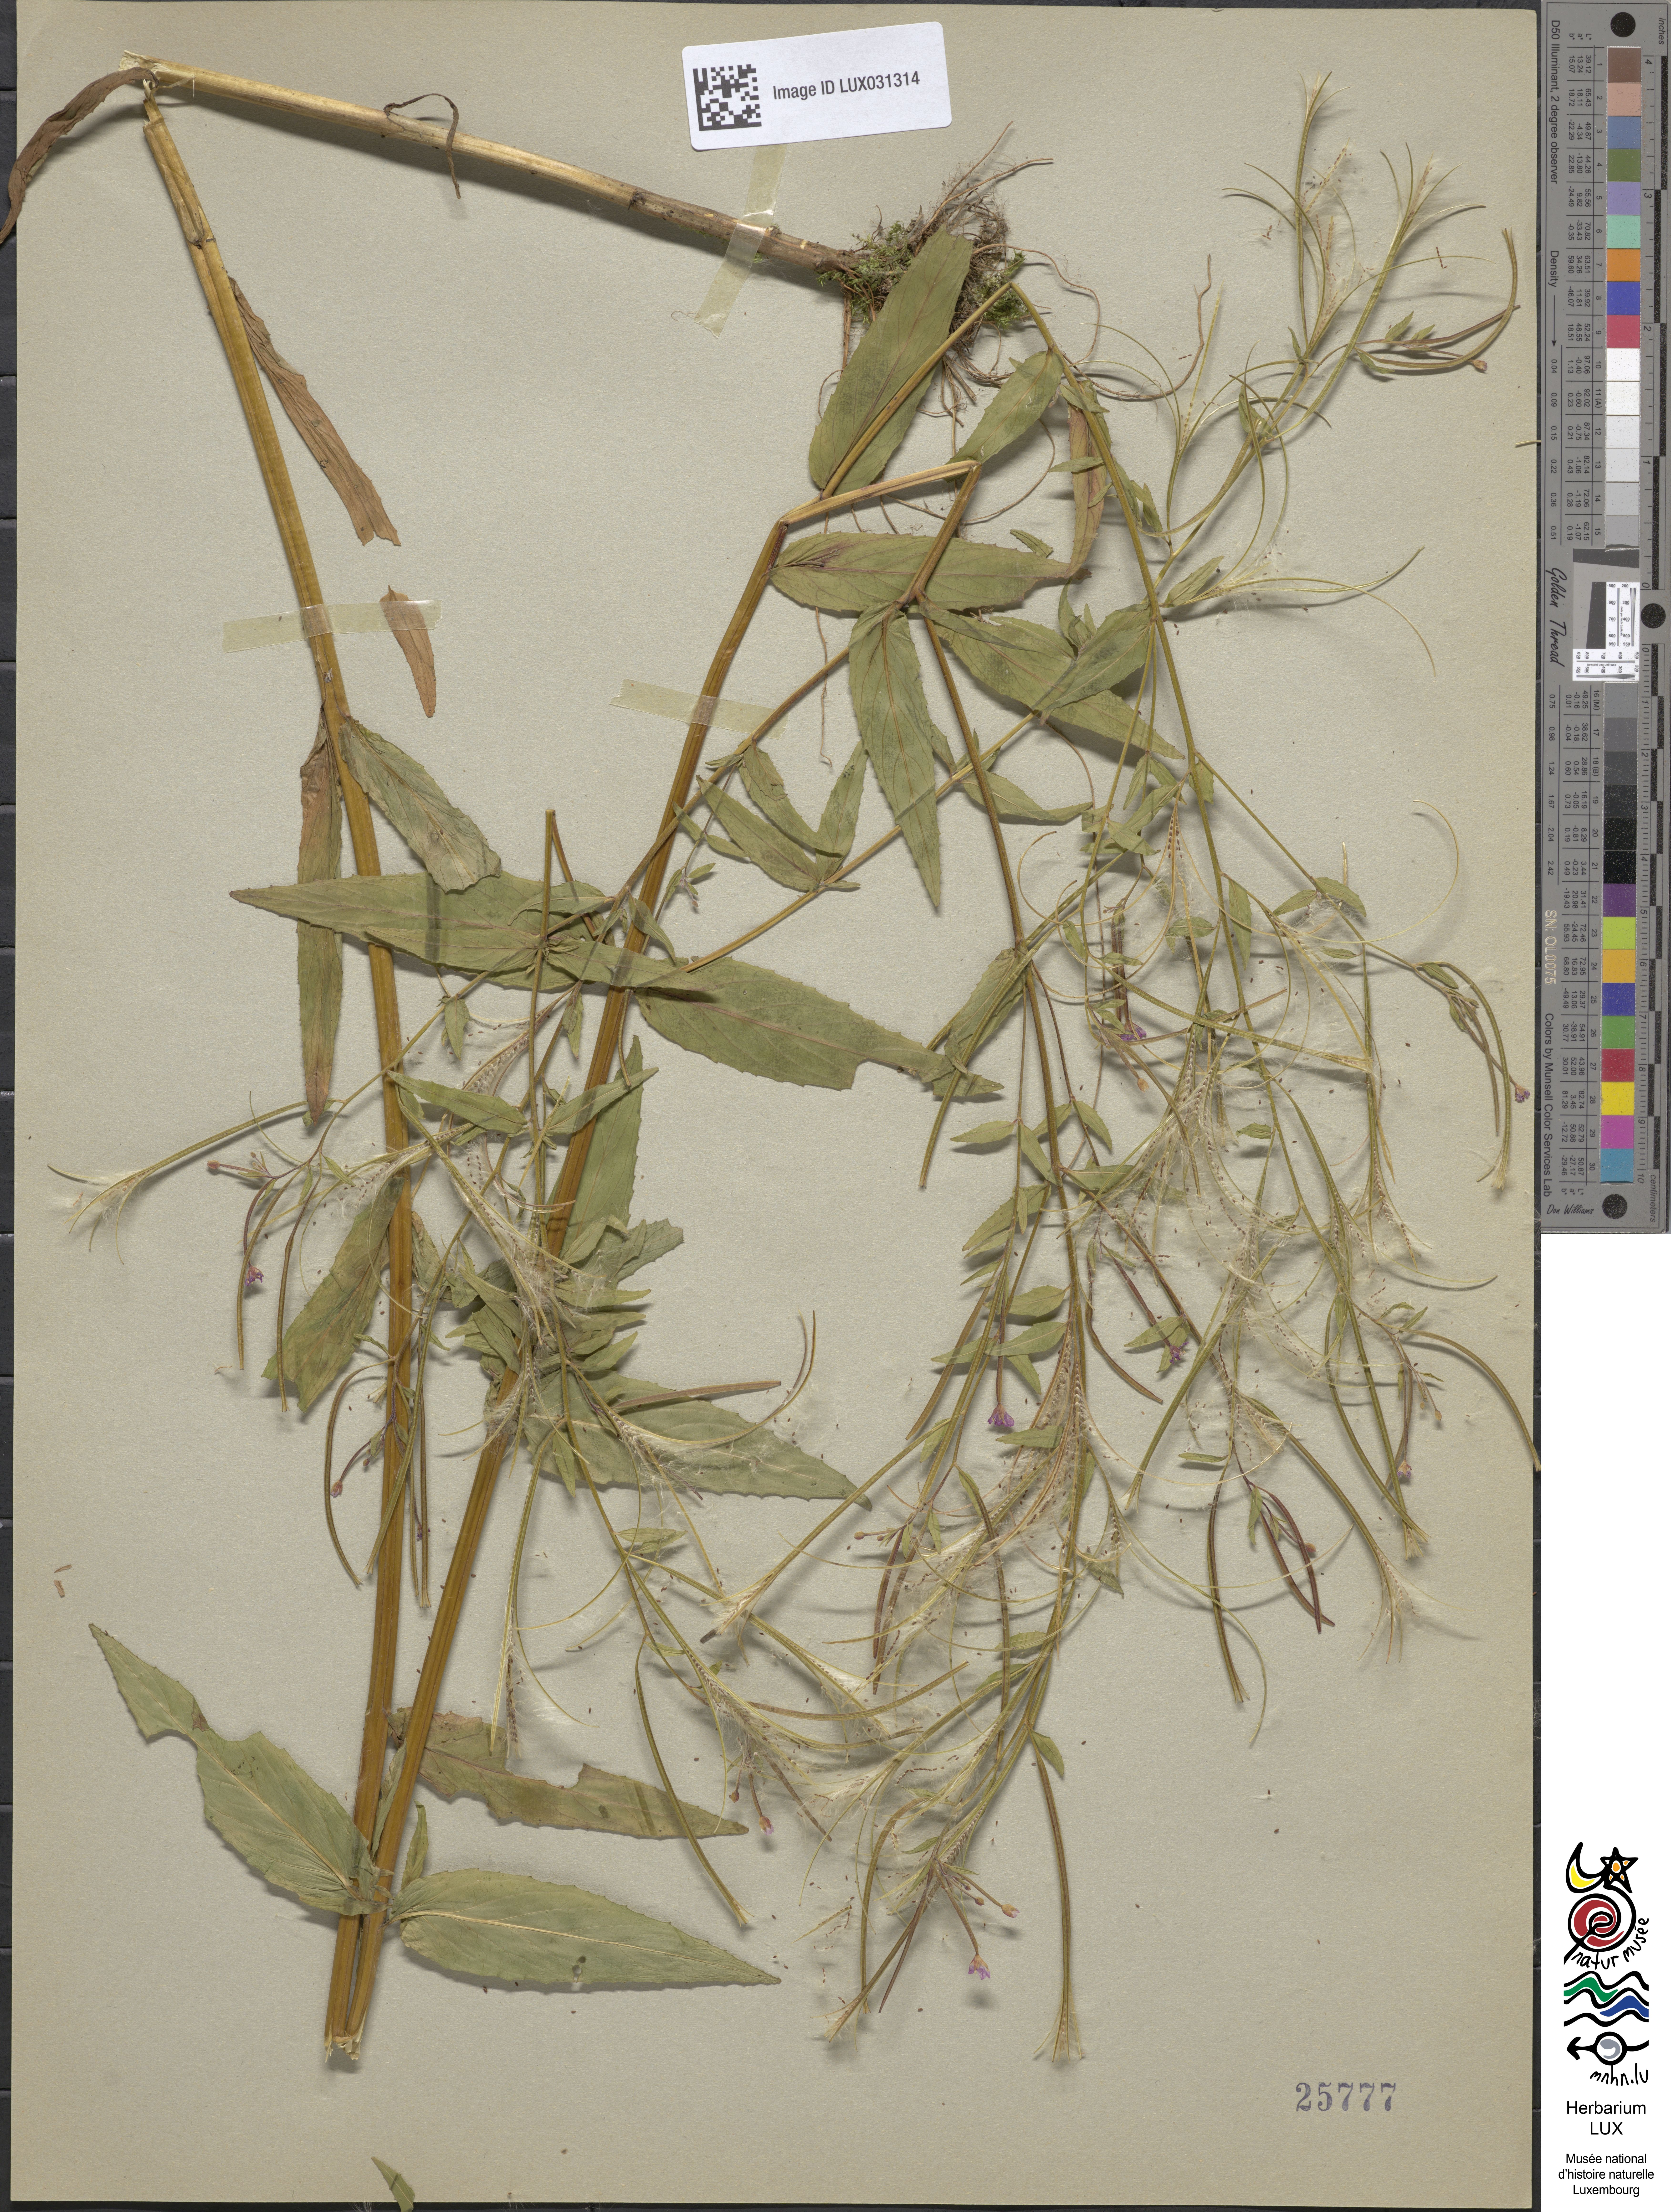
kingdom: Plantae
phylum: Tracheophyta
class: Magnoliopsida
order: Myrtales
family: Onagraceae
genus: Epilobium
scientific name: Epilobium ciliatum
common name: American willowherb
